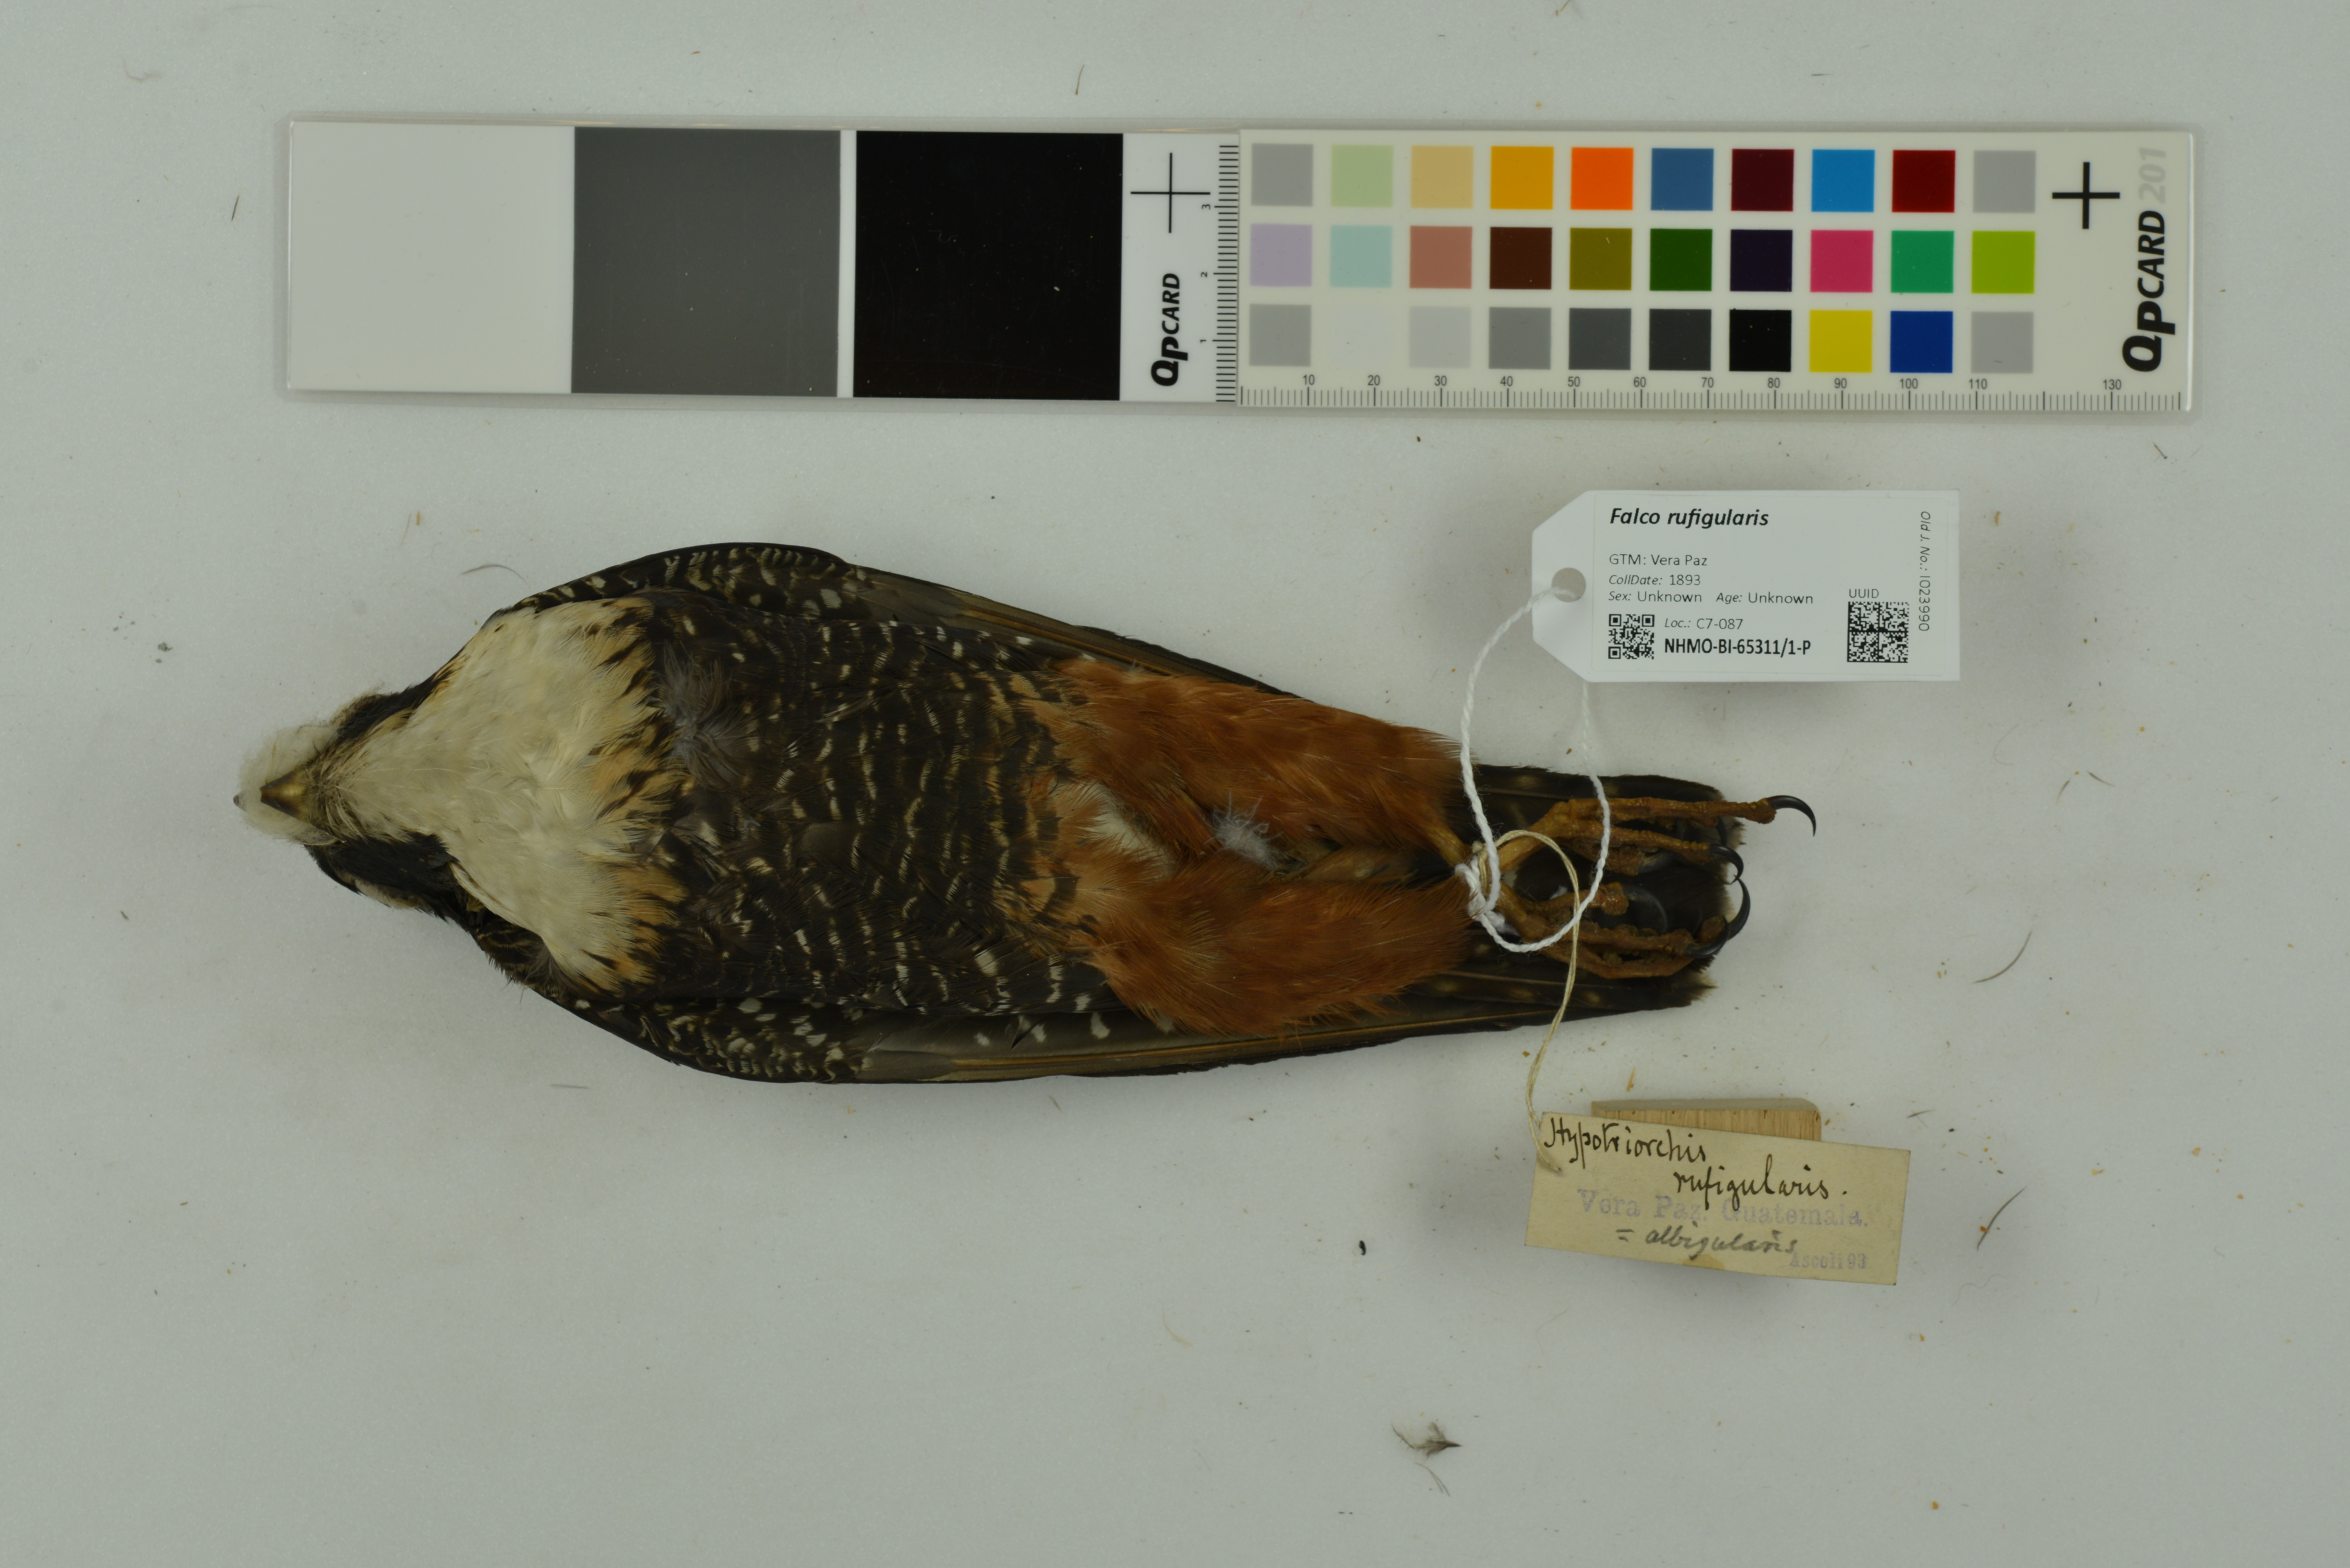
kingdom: Animalia
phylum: Chordata
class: Aves
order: Falconiformes
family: Falconidae
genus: Falco
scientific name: Falco rufigularis
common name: Bat falcon
